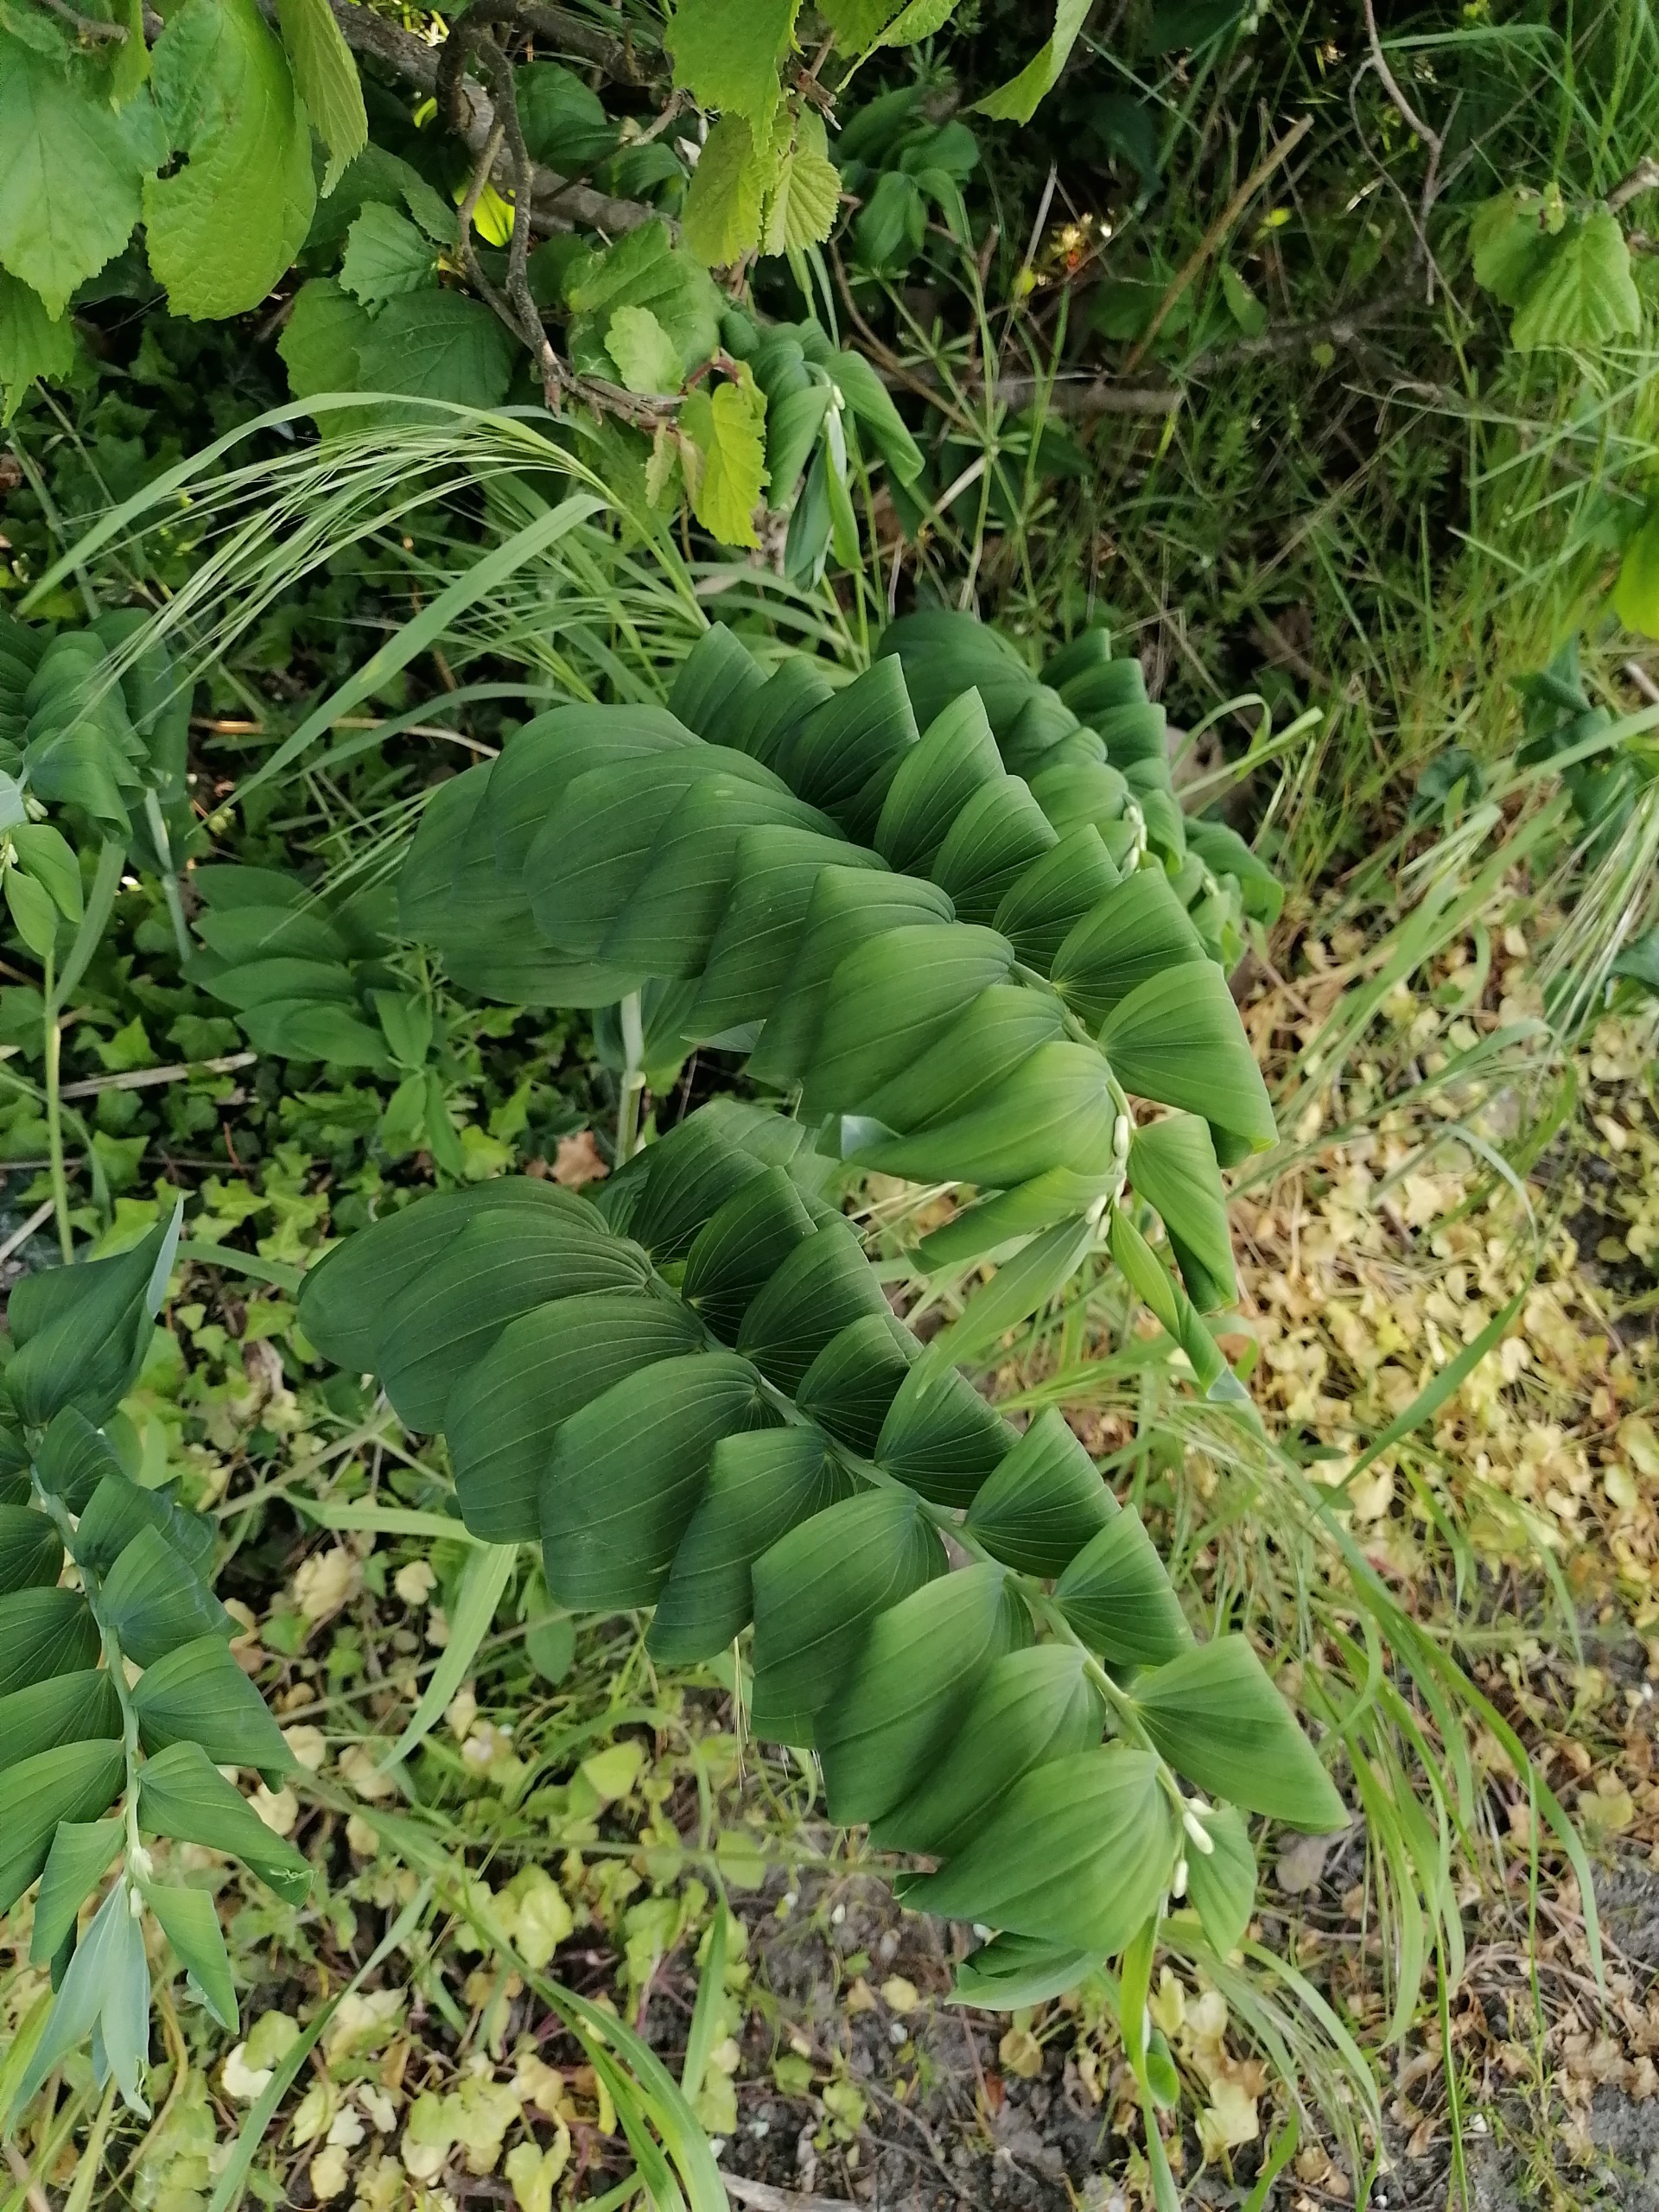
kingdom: Plantae
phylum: Tracheophyta
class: Liliopsida
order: Asparagales
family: Asparagaceae
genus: Polygonatum
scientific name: Polygonatum multiflorum
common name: Stor konval
